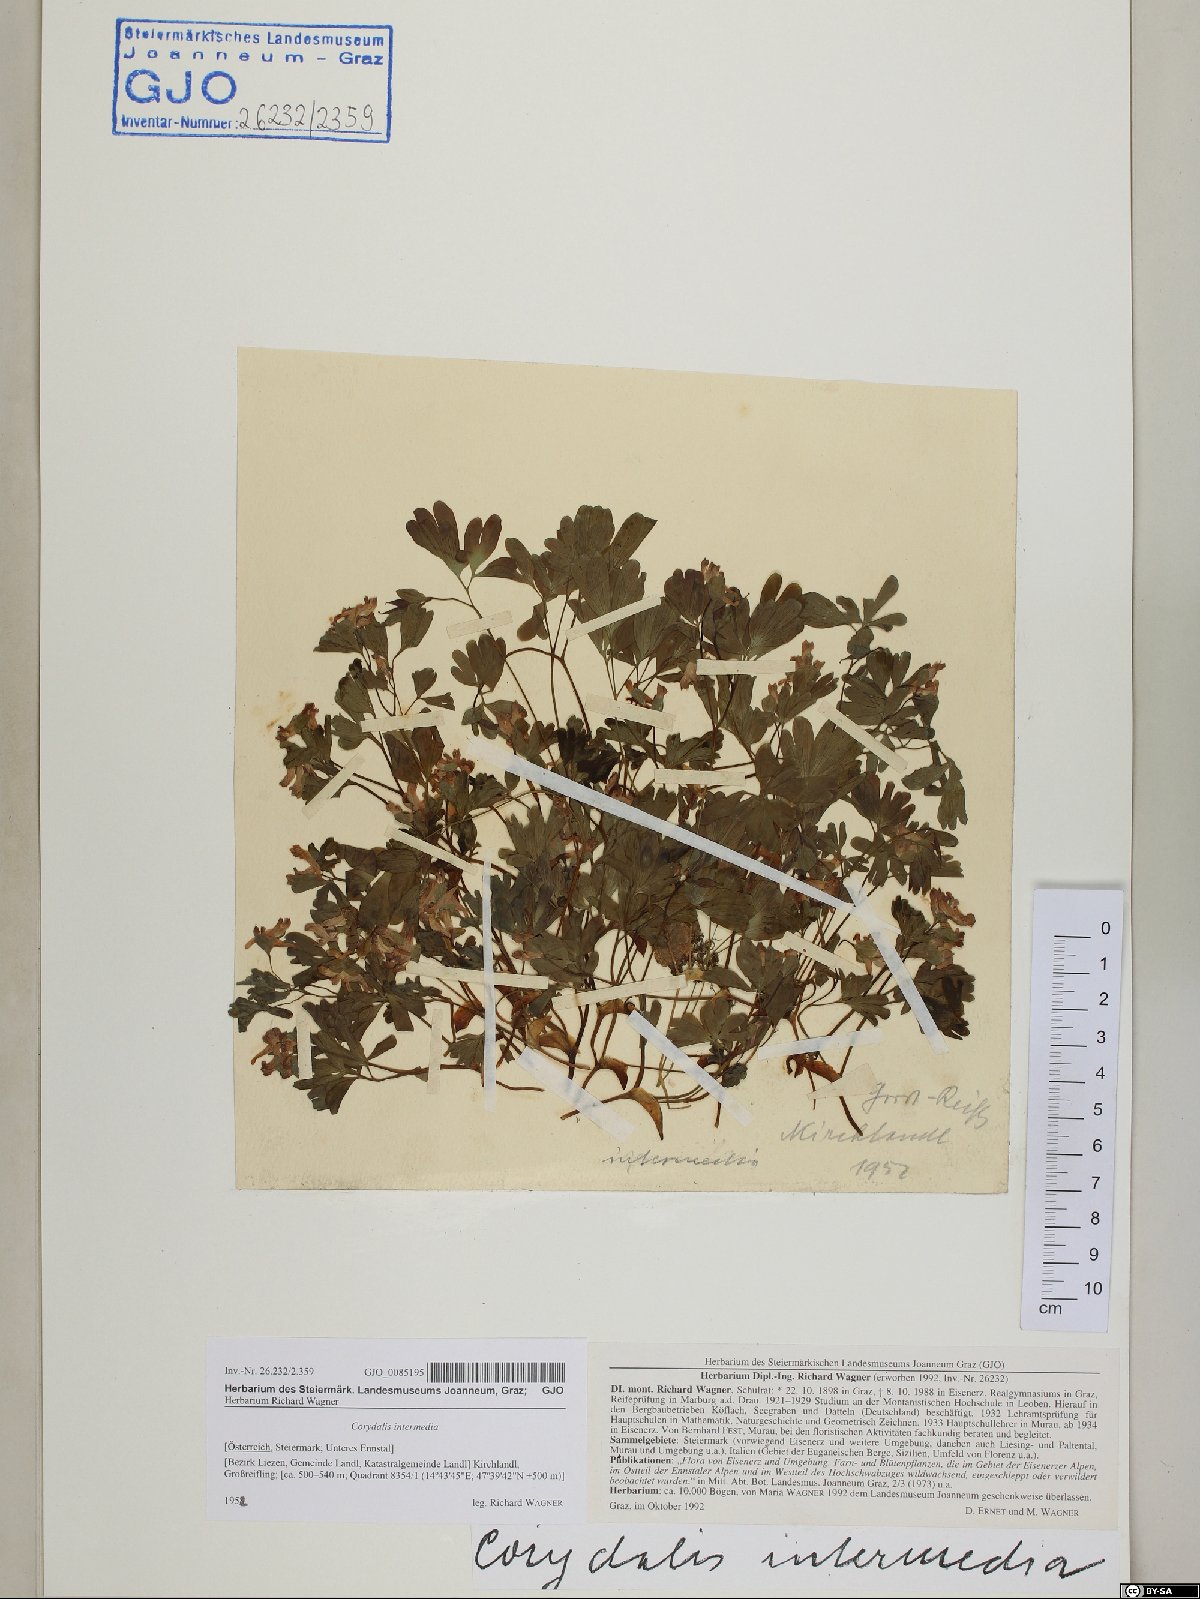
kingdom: Plantae
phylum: Tracheophyta
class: Magnoliopsida
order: Ranunculales
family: Papaveraceae
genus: Corydalis
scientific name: Corydalis intermedia
